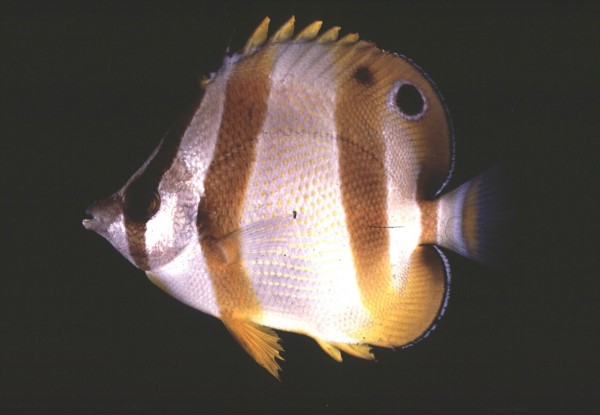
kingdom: Animalia
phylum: Chordata
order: Perciformes
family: Chaetodontidae
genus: Chaetodon
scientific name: Chaetodon marleyi
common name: Doubledash butterflyfish
